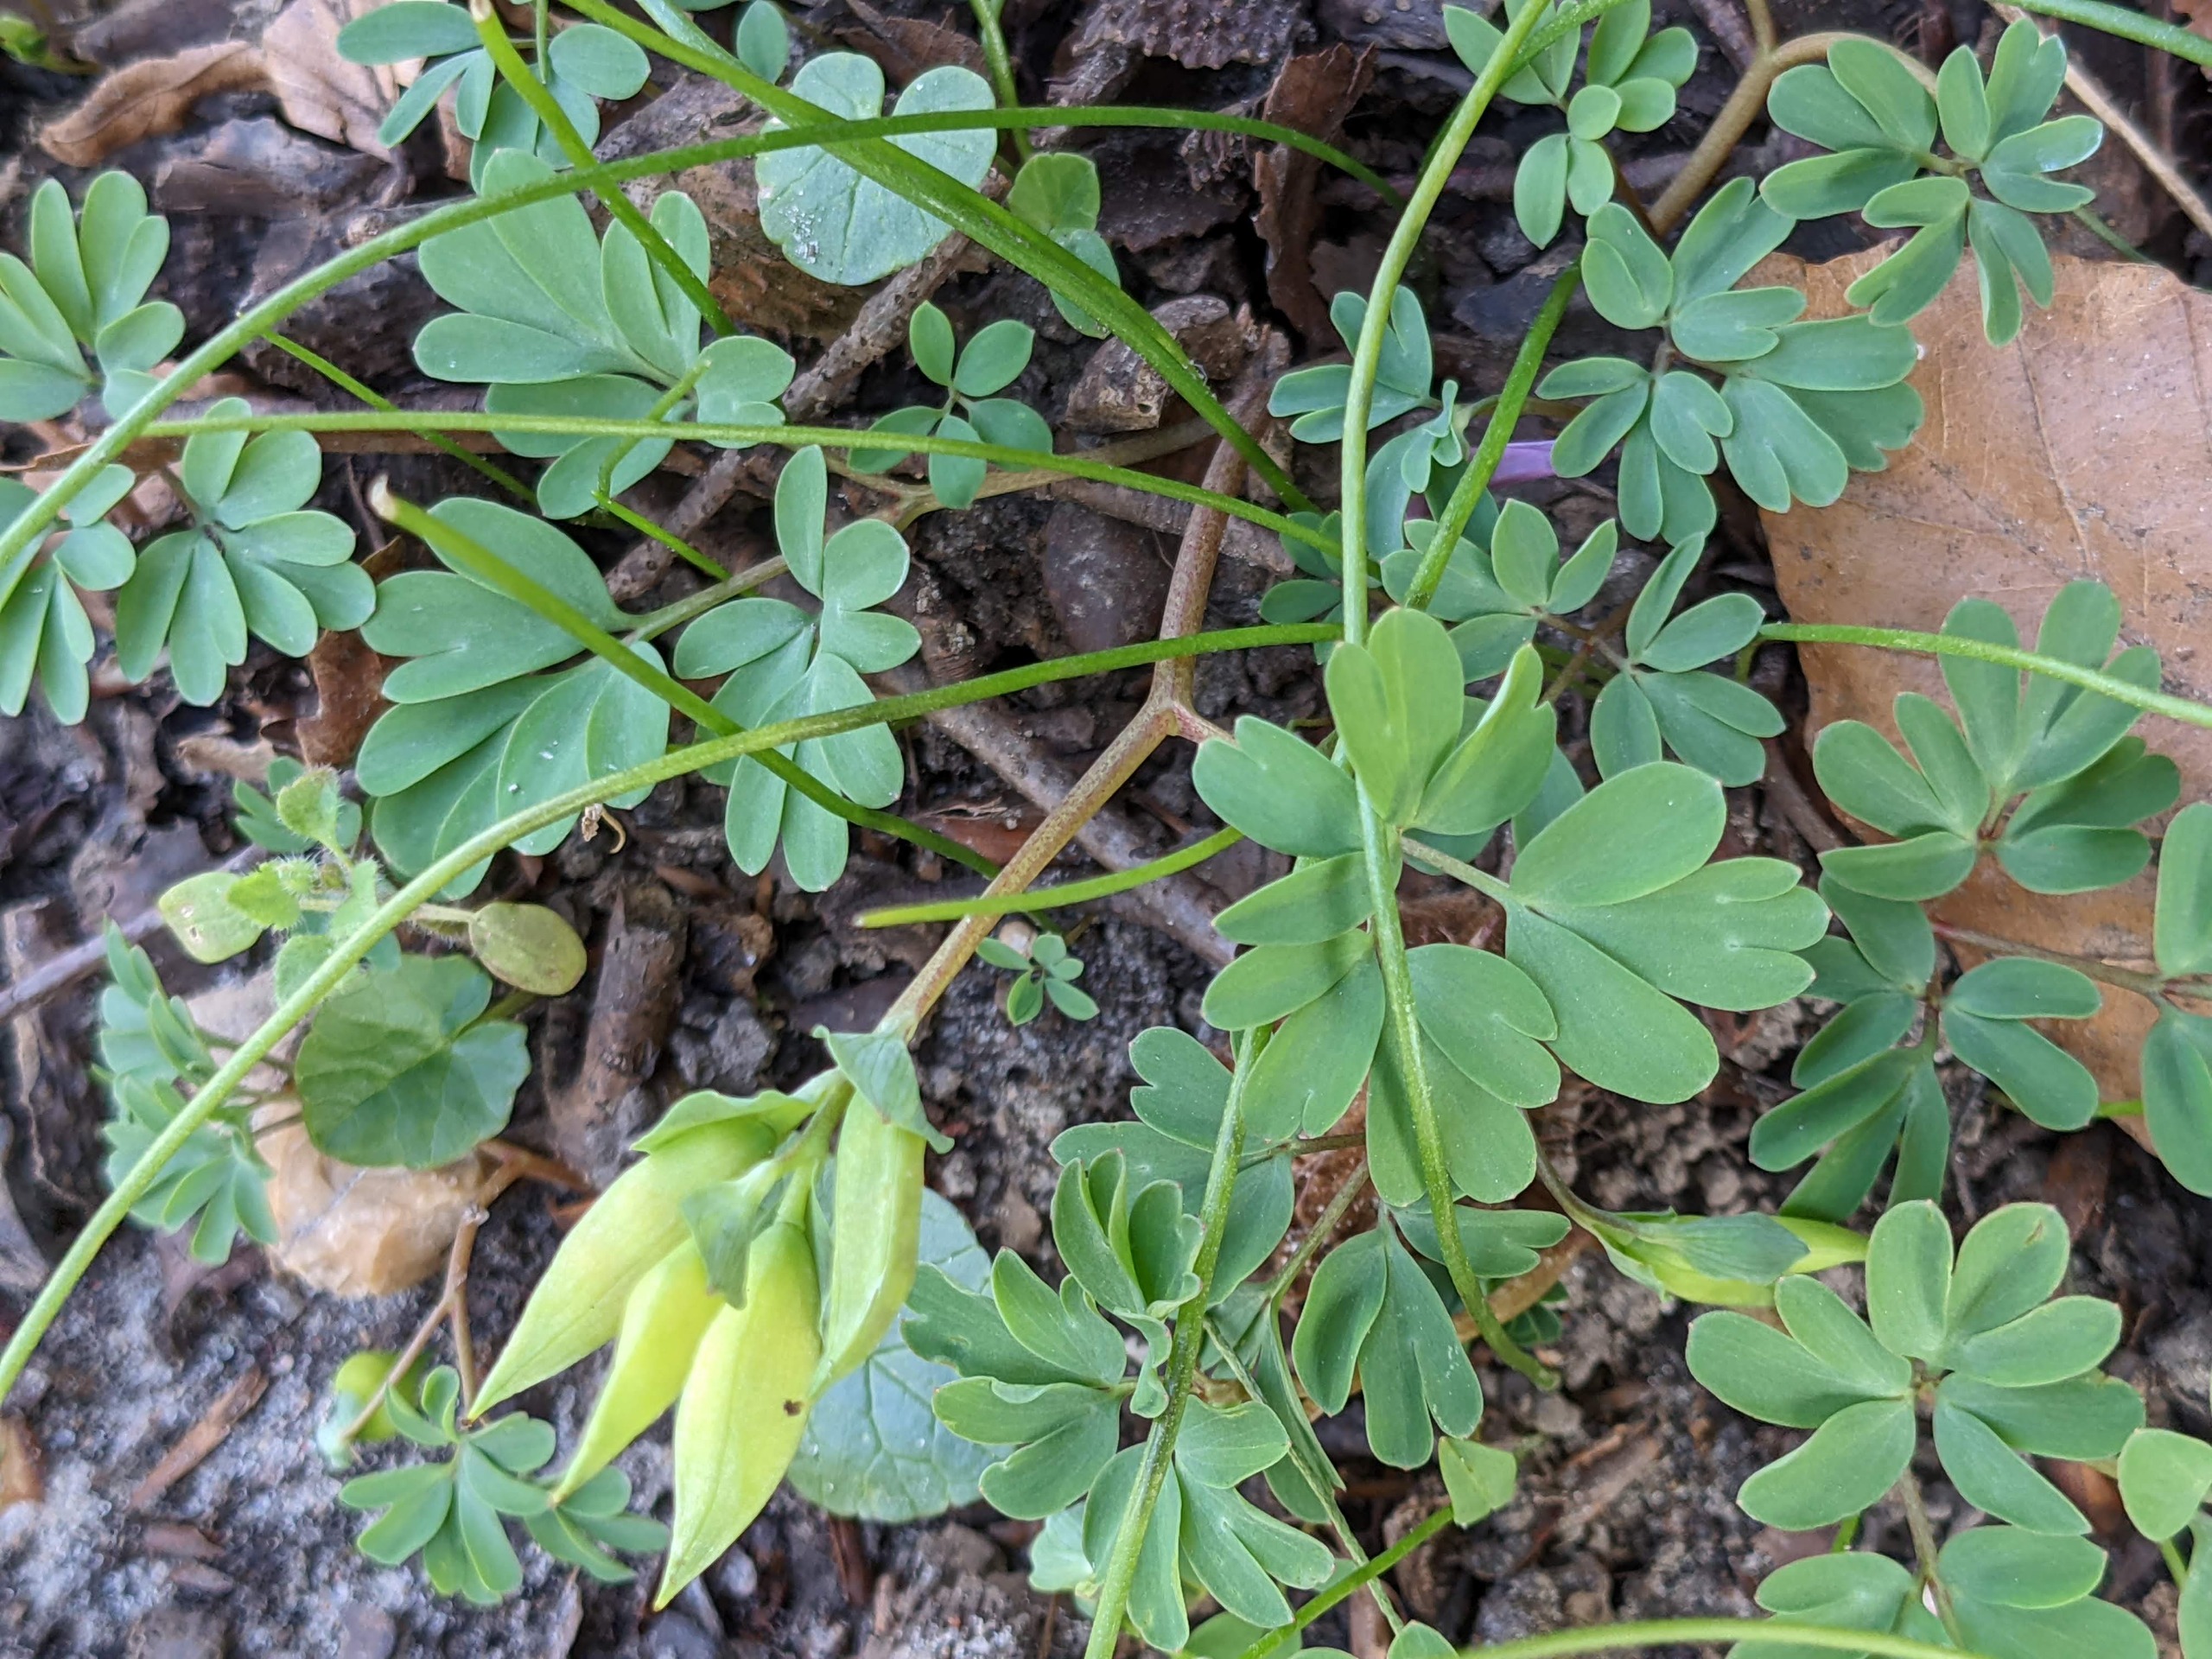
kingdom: Plantae
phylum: Tracheophyta
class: Magnoliopsida
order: Ranunculales
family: Papaveraceae
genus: Corydalis
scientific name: Corydalis intermedia
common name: Liden lærkespore
